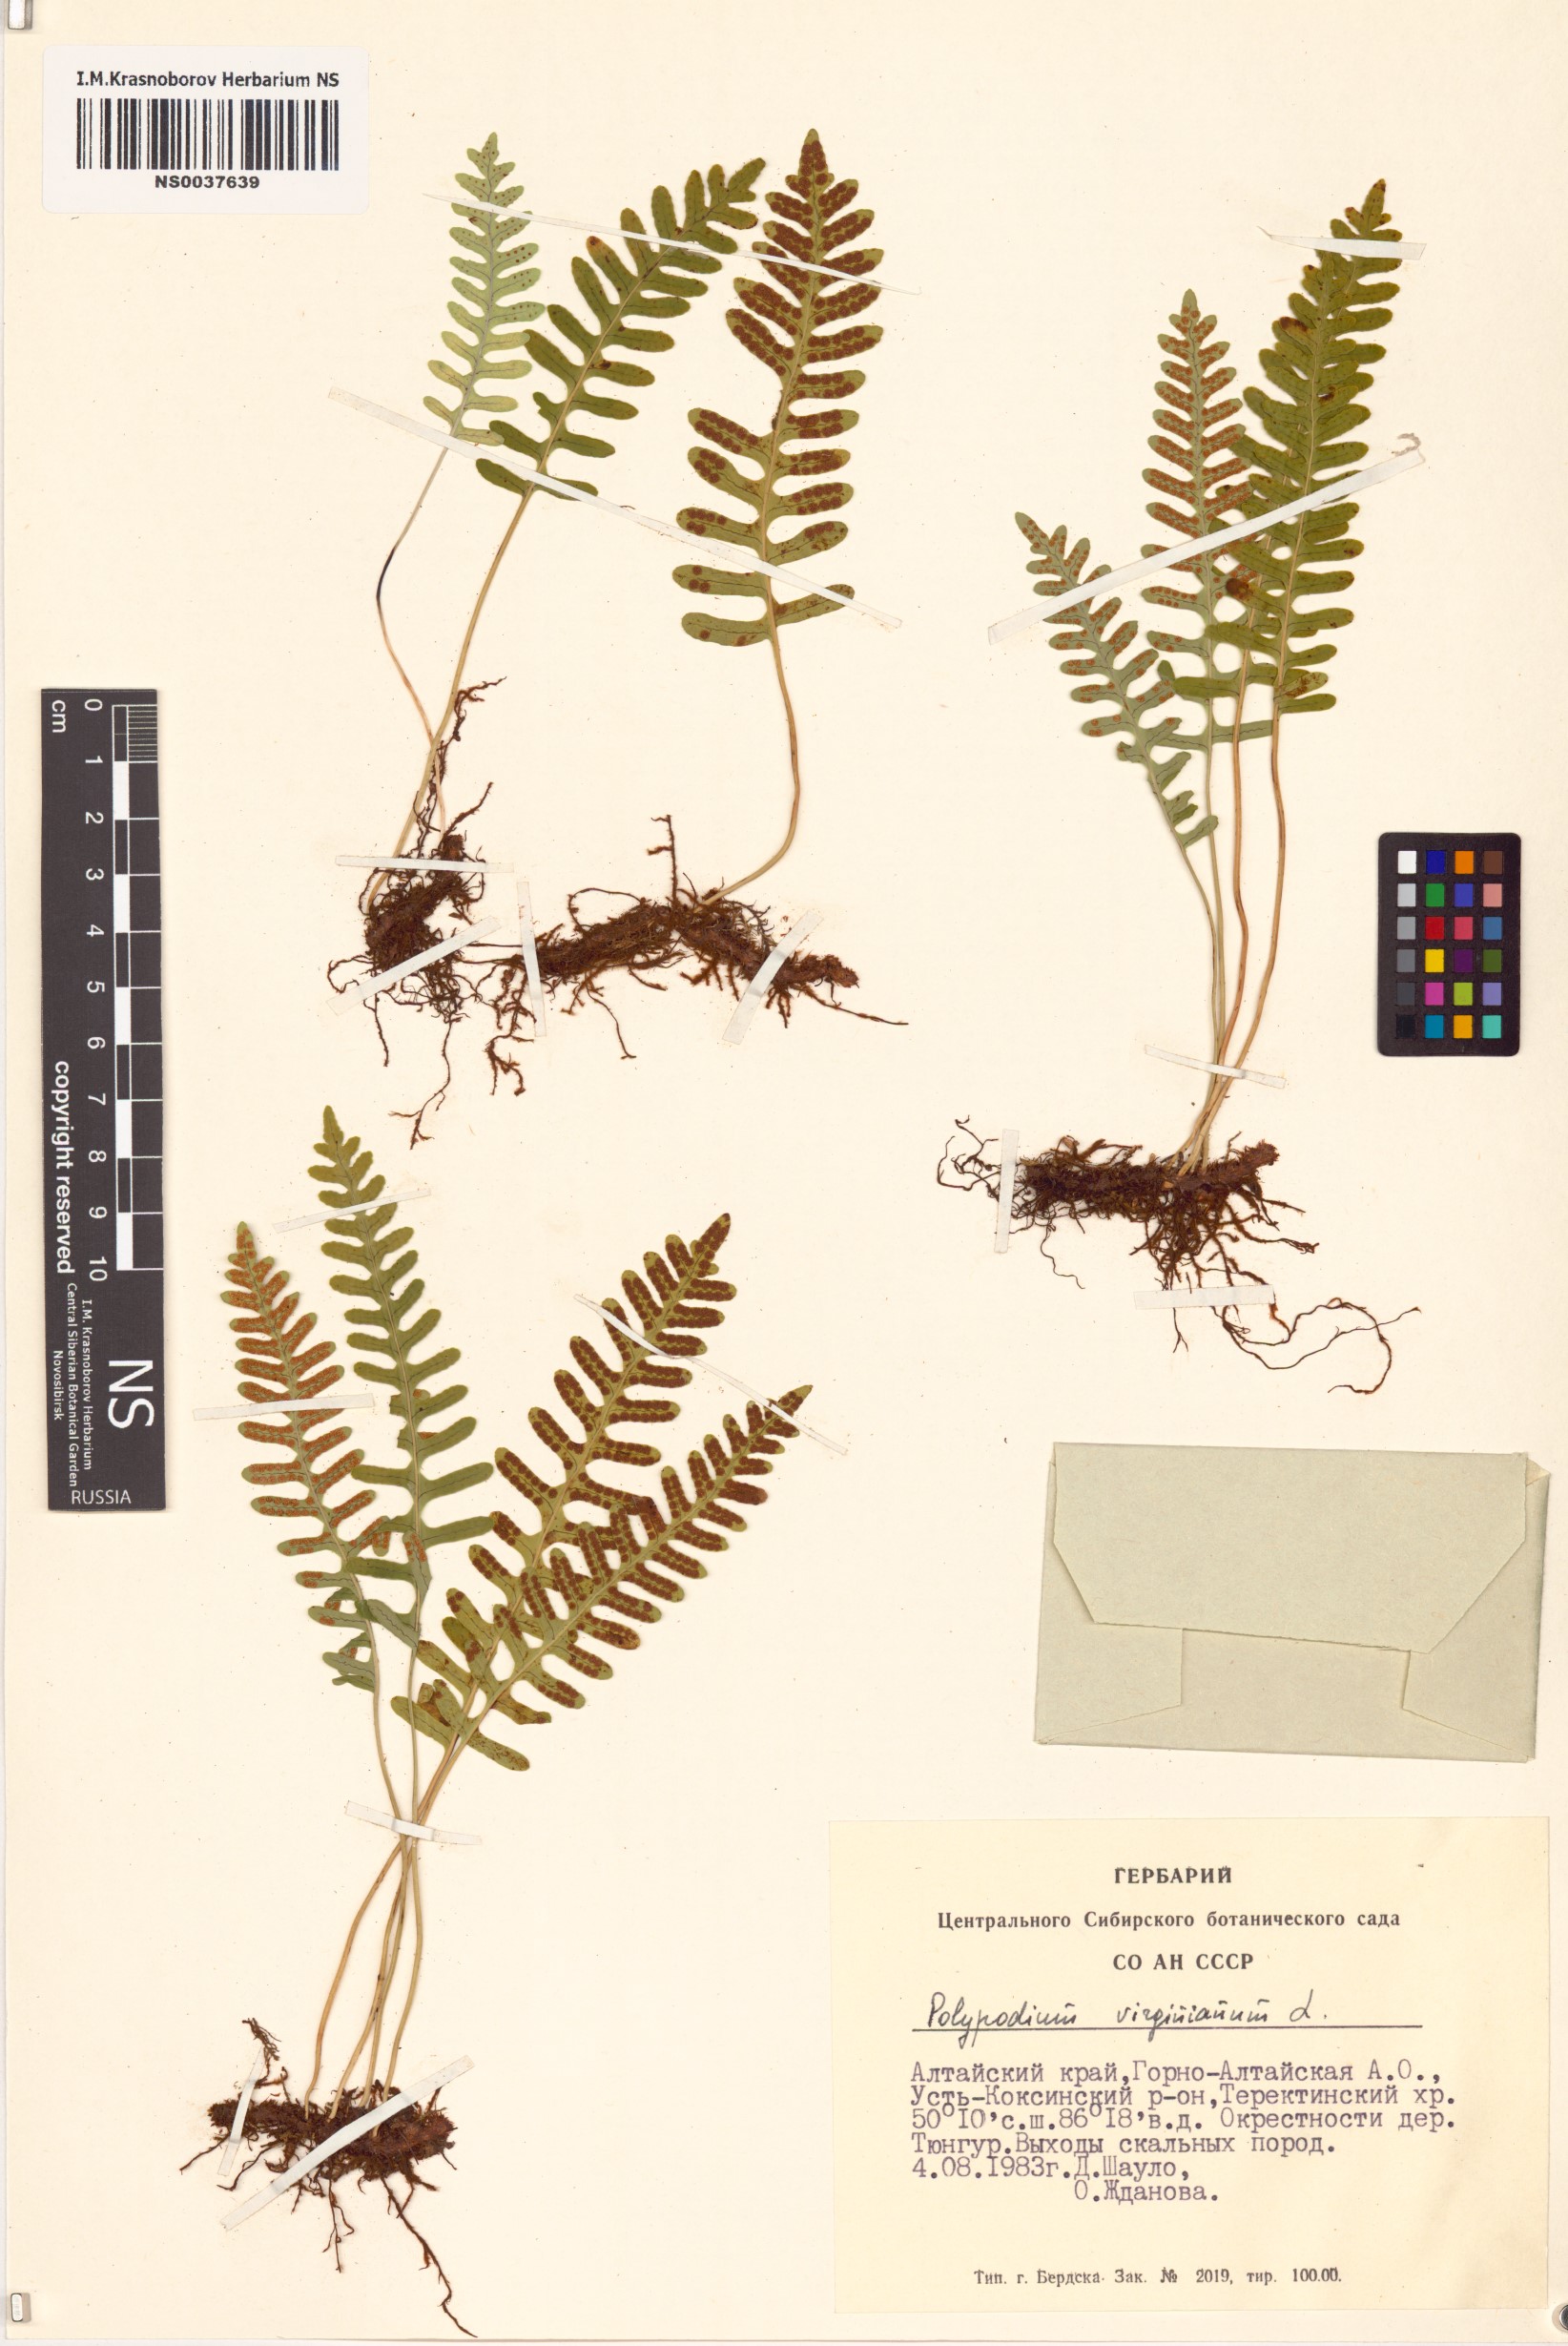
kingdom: Plantae
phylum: Tracheophyta
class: Polypodiopsida
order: Polypodiales
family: Polypodiaceae
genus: Polypodium
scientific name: Polypodium virginianum
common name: American wall fern
